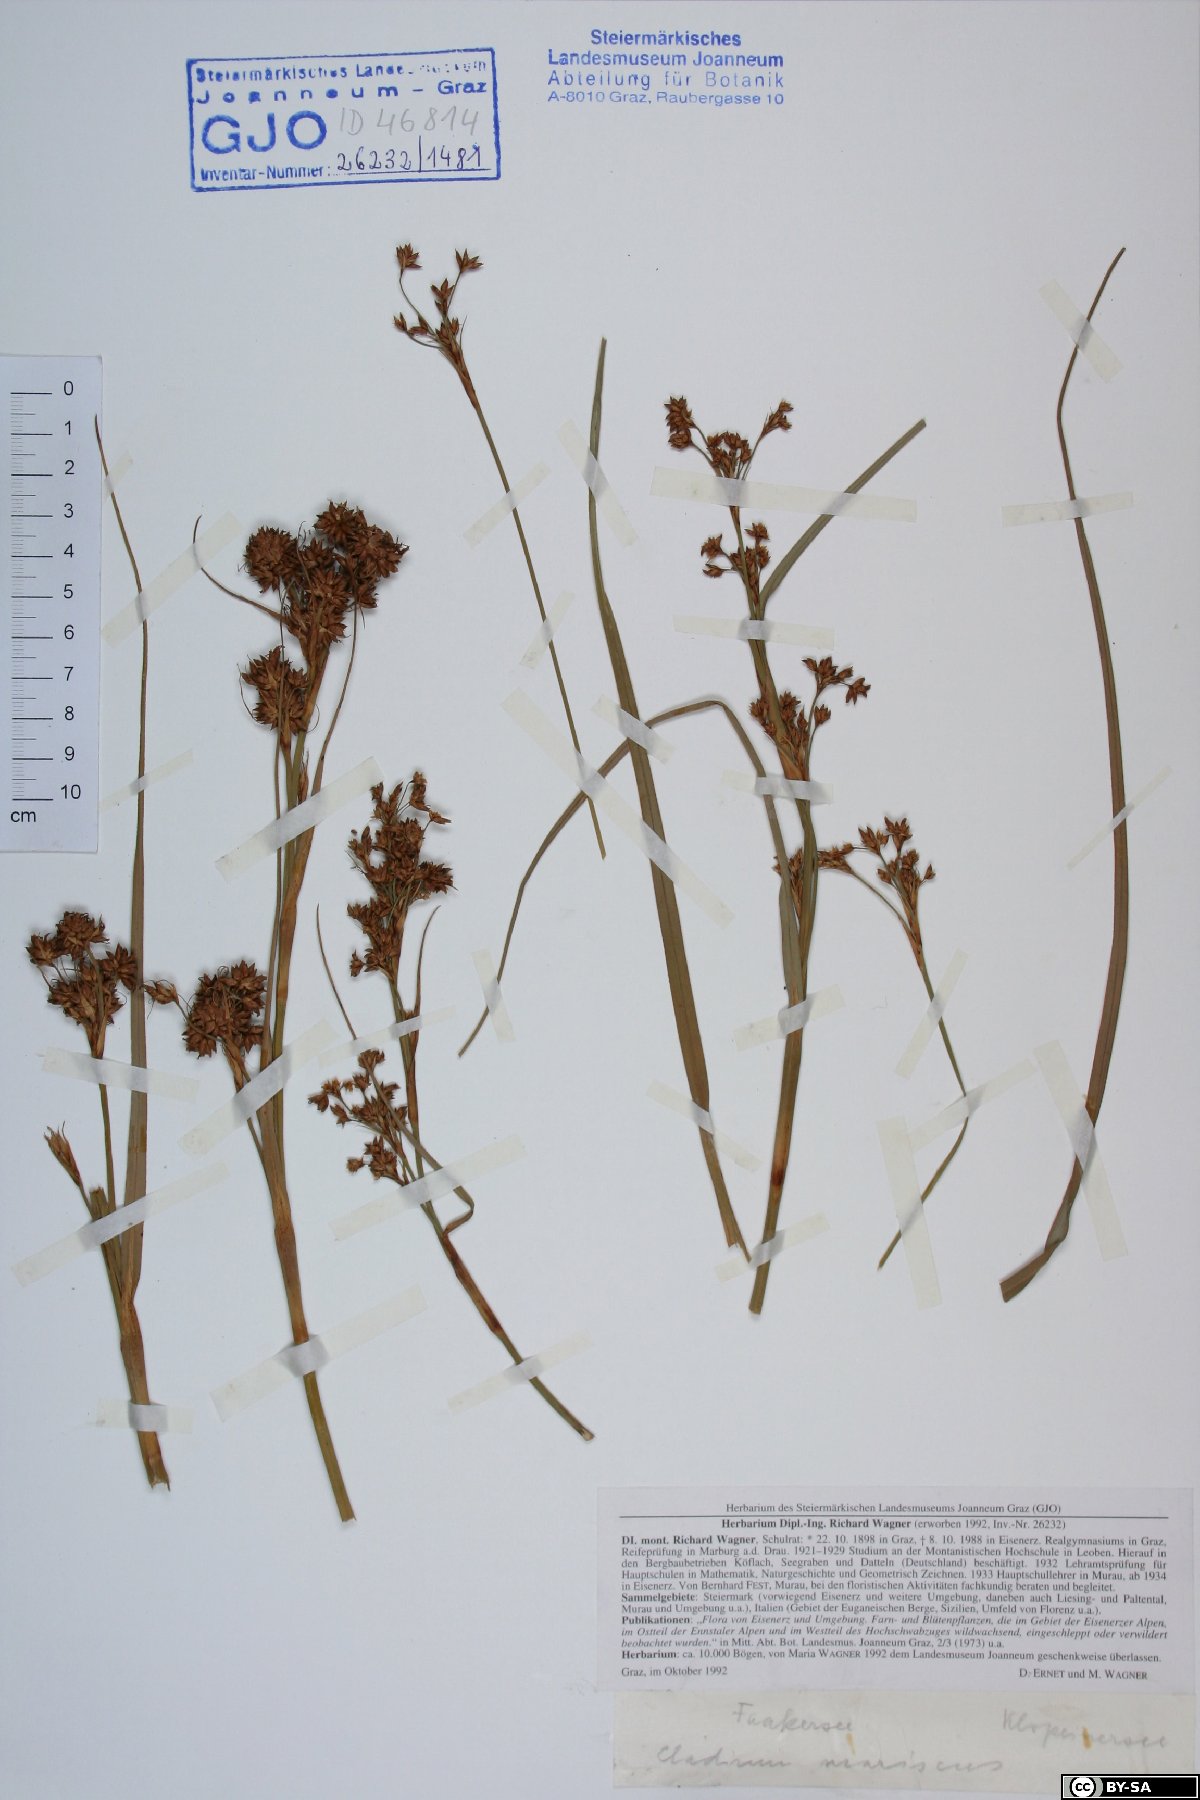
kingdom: Plantae
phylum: Tracheophyta
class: Liliopsida
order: Poales
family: Cyperaceae
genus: Cladium
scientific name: Cladium mariscus
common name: Great fen-sedge
